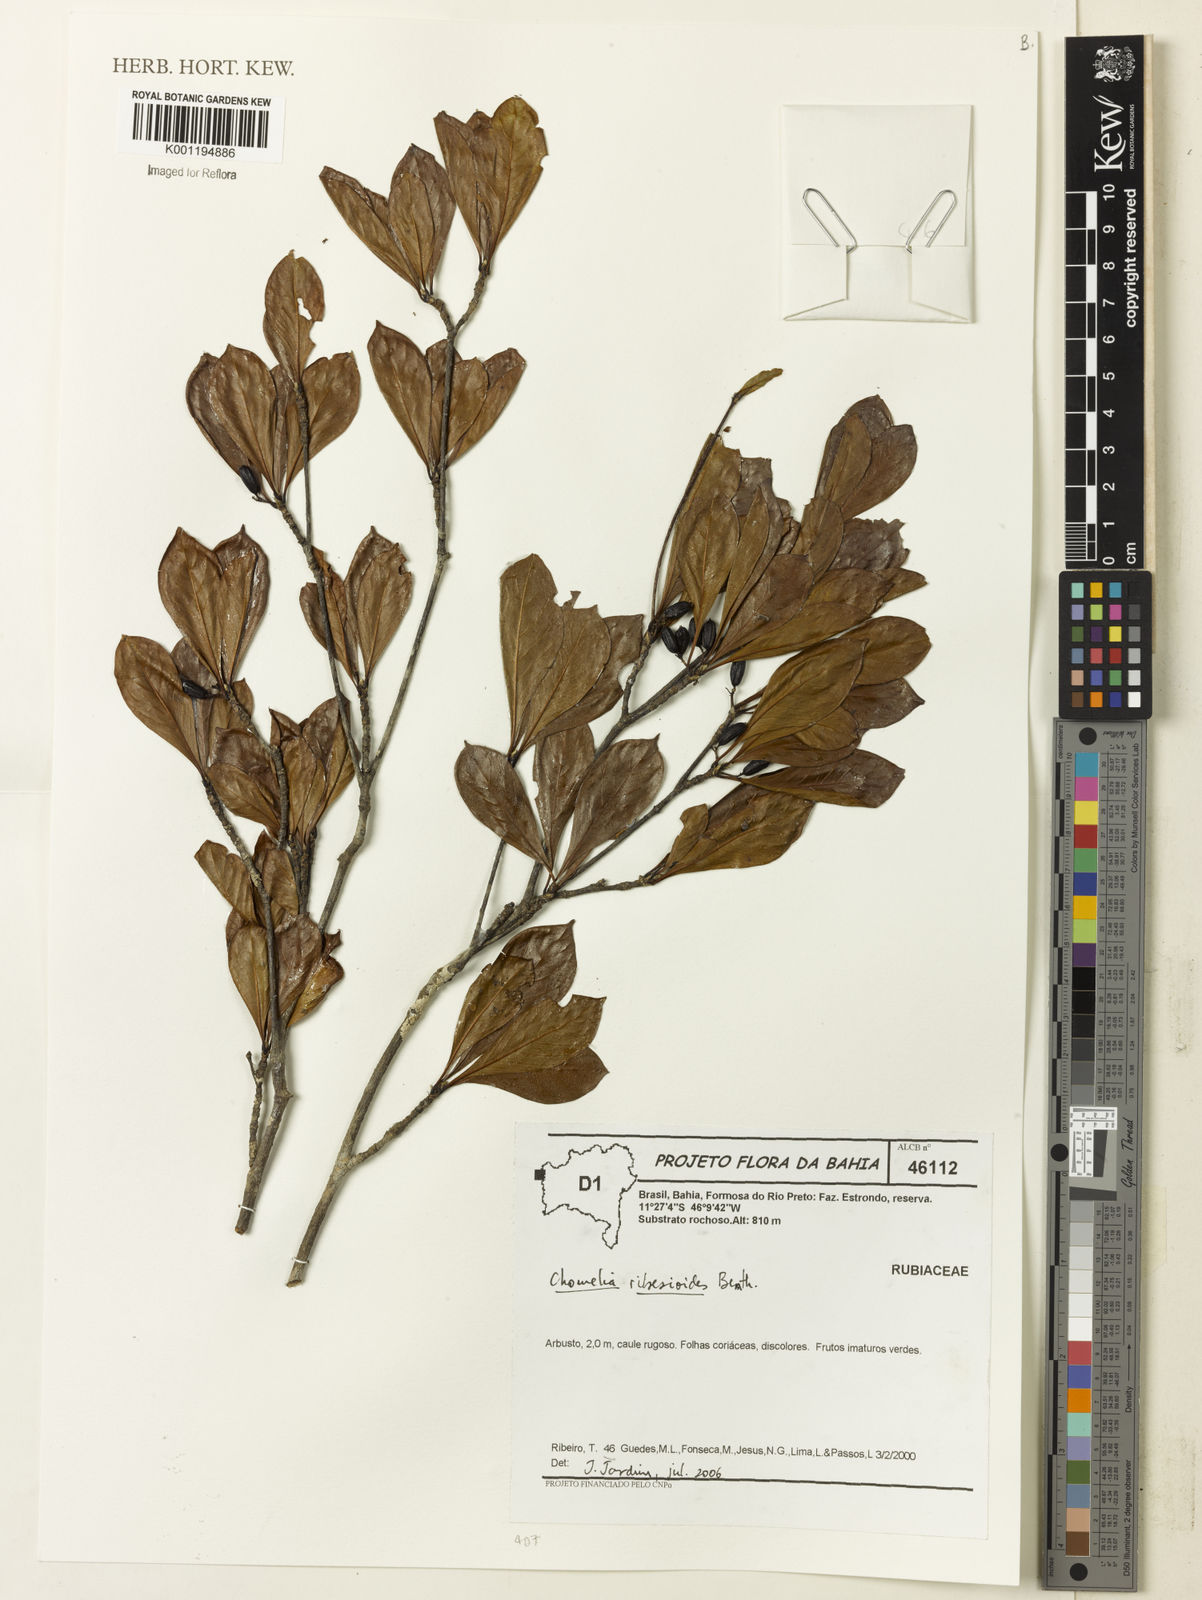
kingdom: Plantae
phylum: Tracheophyta
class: Magnoliopsida
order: Gentianales
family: Rubiaceae
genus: Chomelia
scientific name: Chomelia ribesioides
